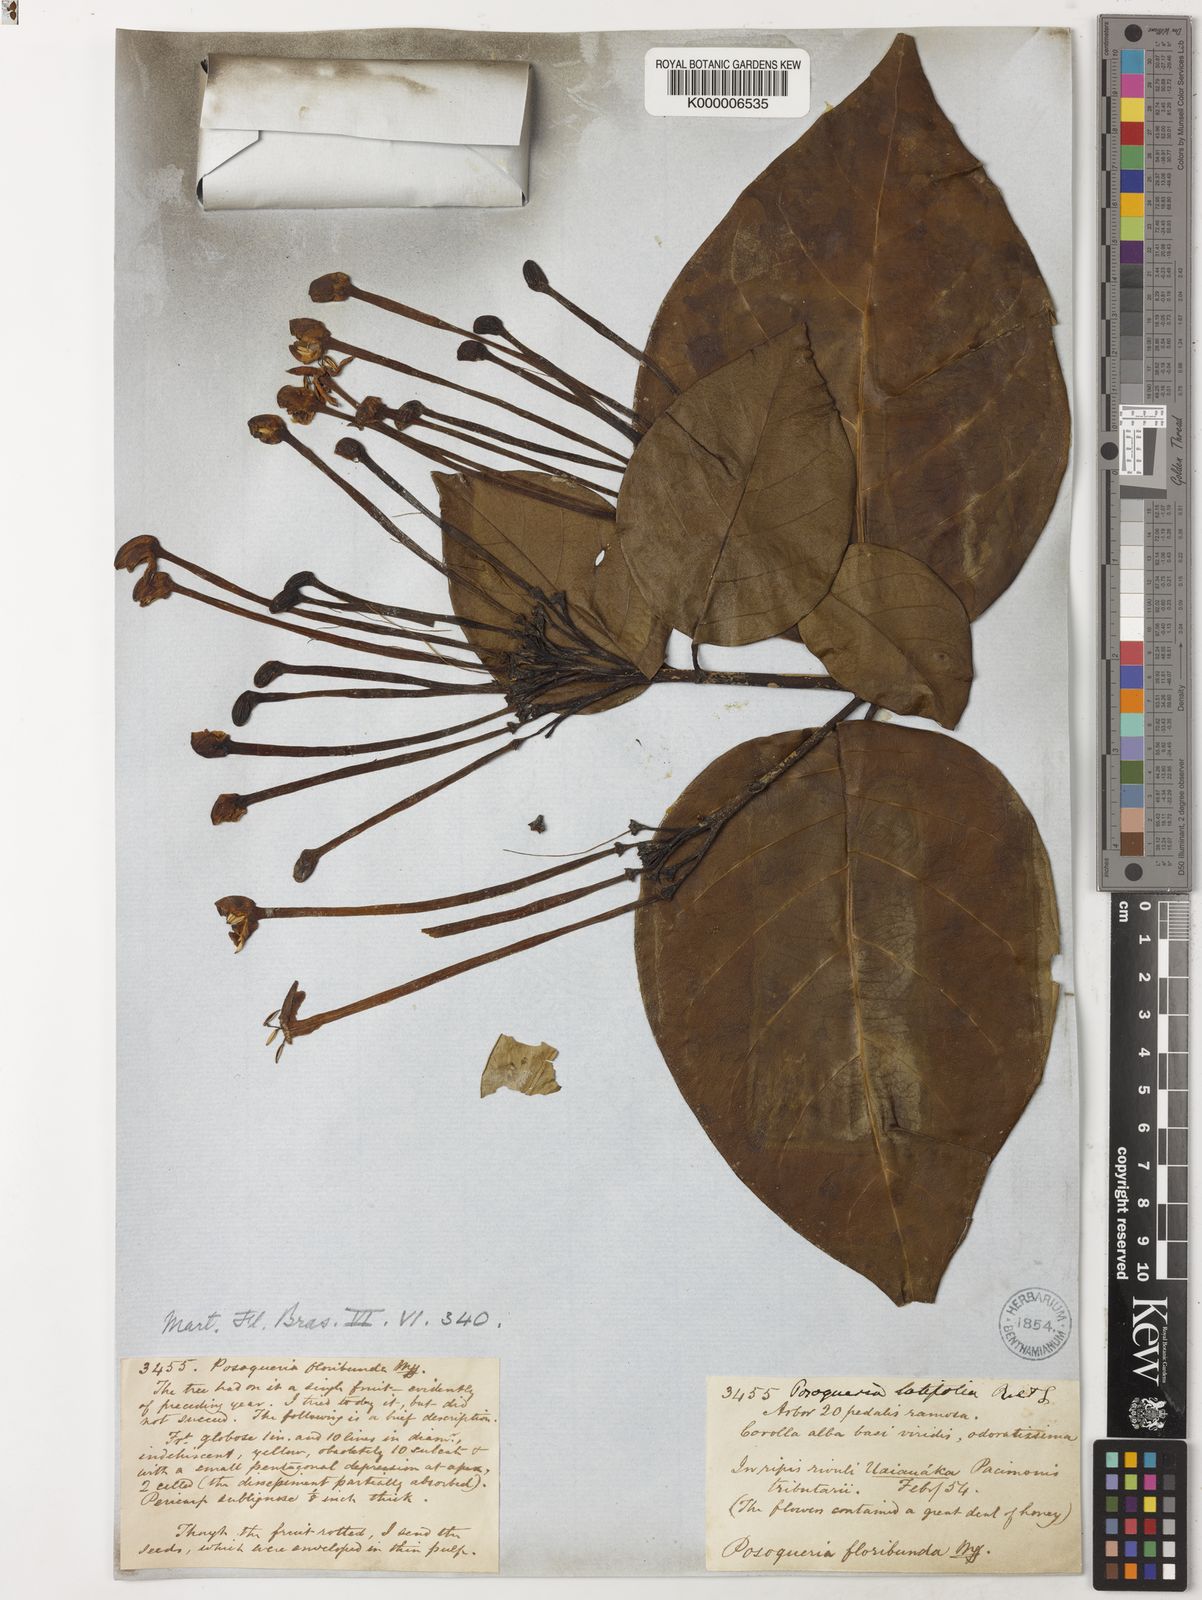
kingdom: Plantae
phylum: Tracheophyta
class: Magnoliopsida
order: Gentianales
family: Rubiaceae
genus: Posoqueria
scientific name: Posoqueria latifolia
